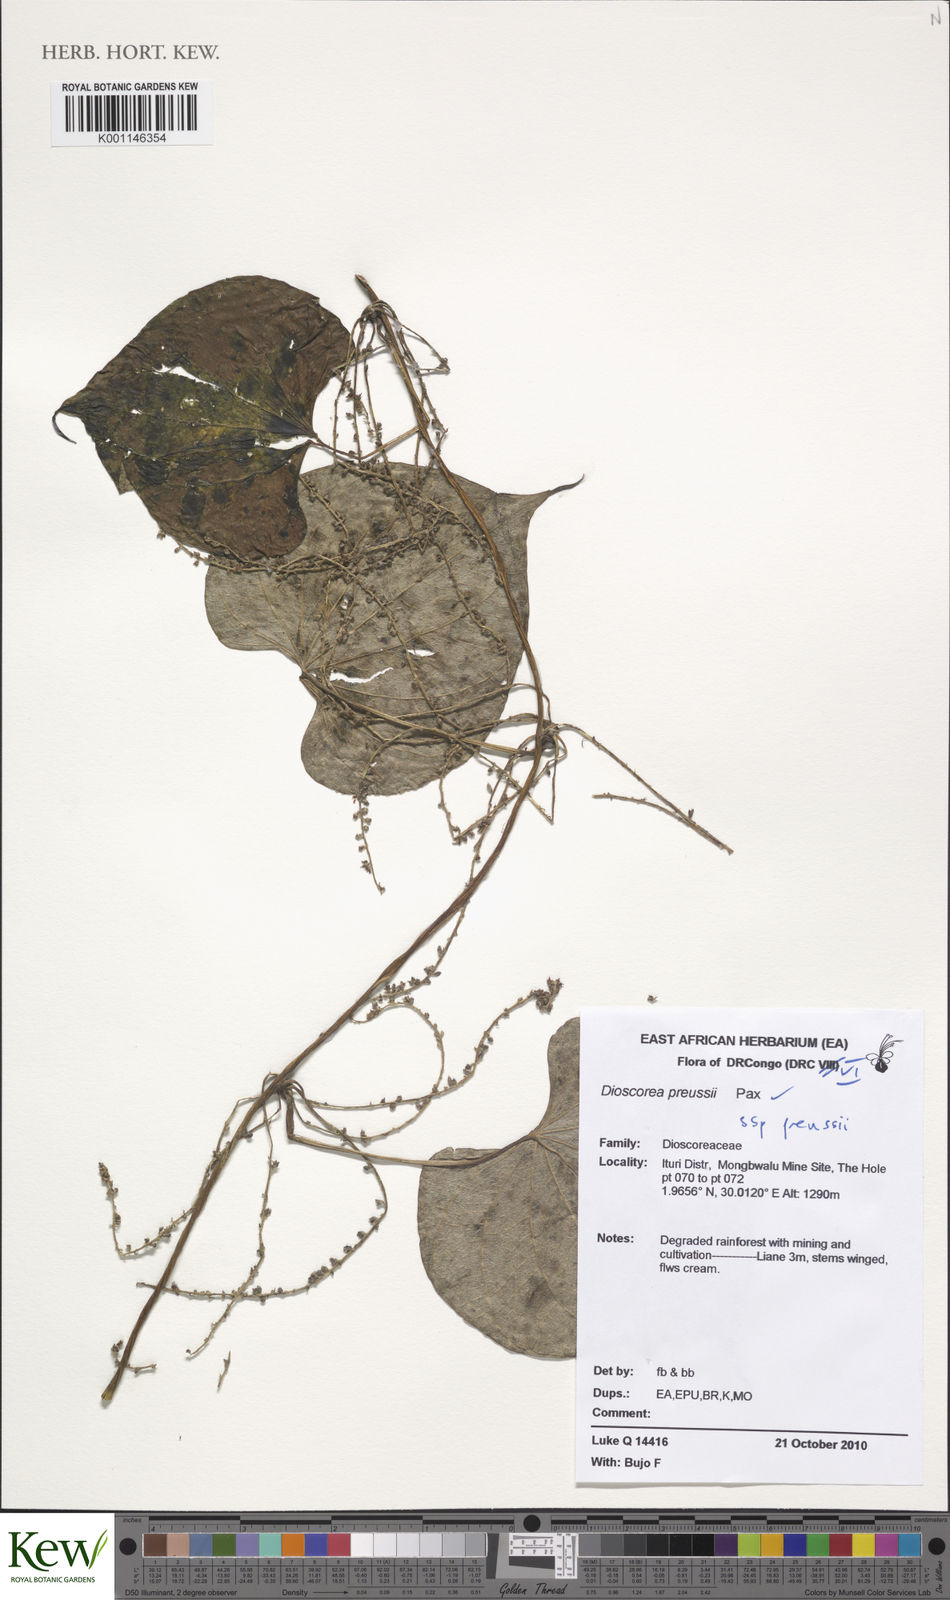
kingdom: Plantae
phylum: Tracheophyta
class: Liliopsida
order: Dioscoreales
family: Dioscoreaceae
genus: Dioscorea
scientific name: Dioscorea preussii
